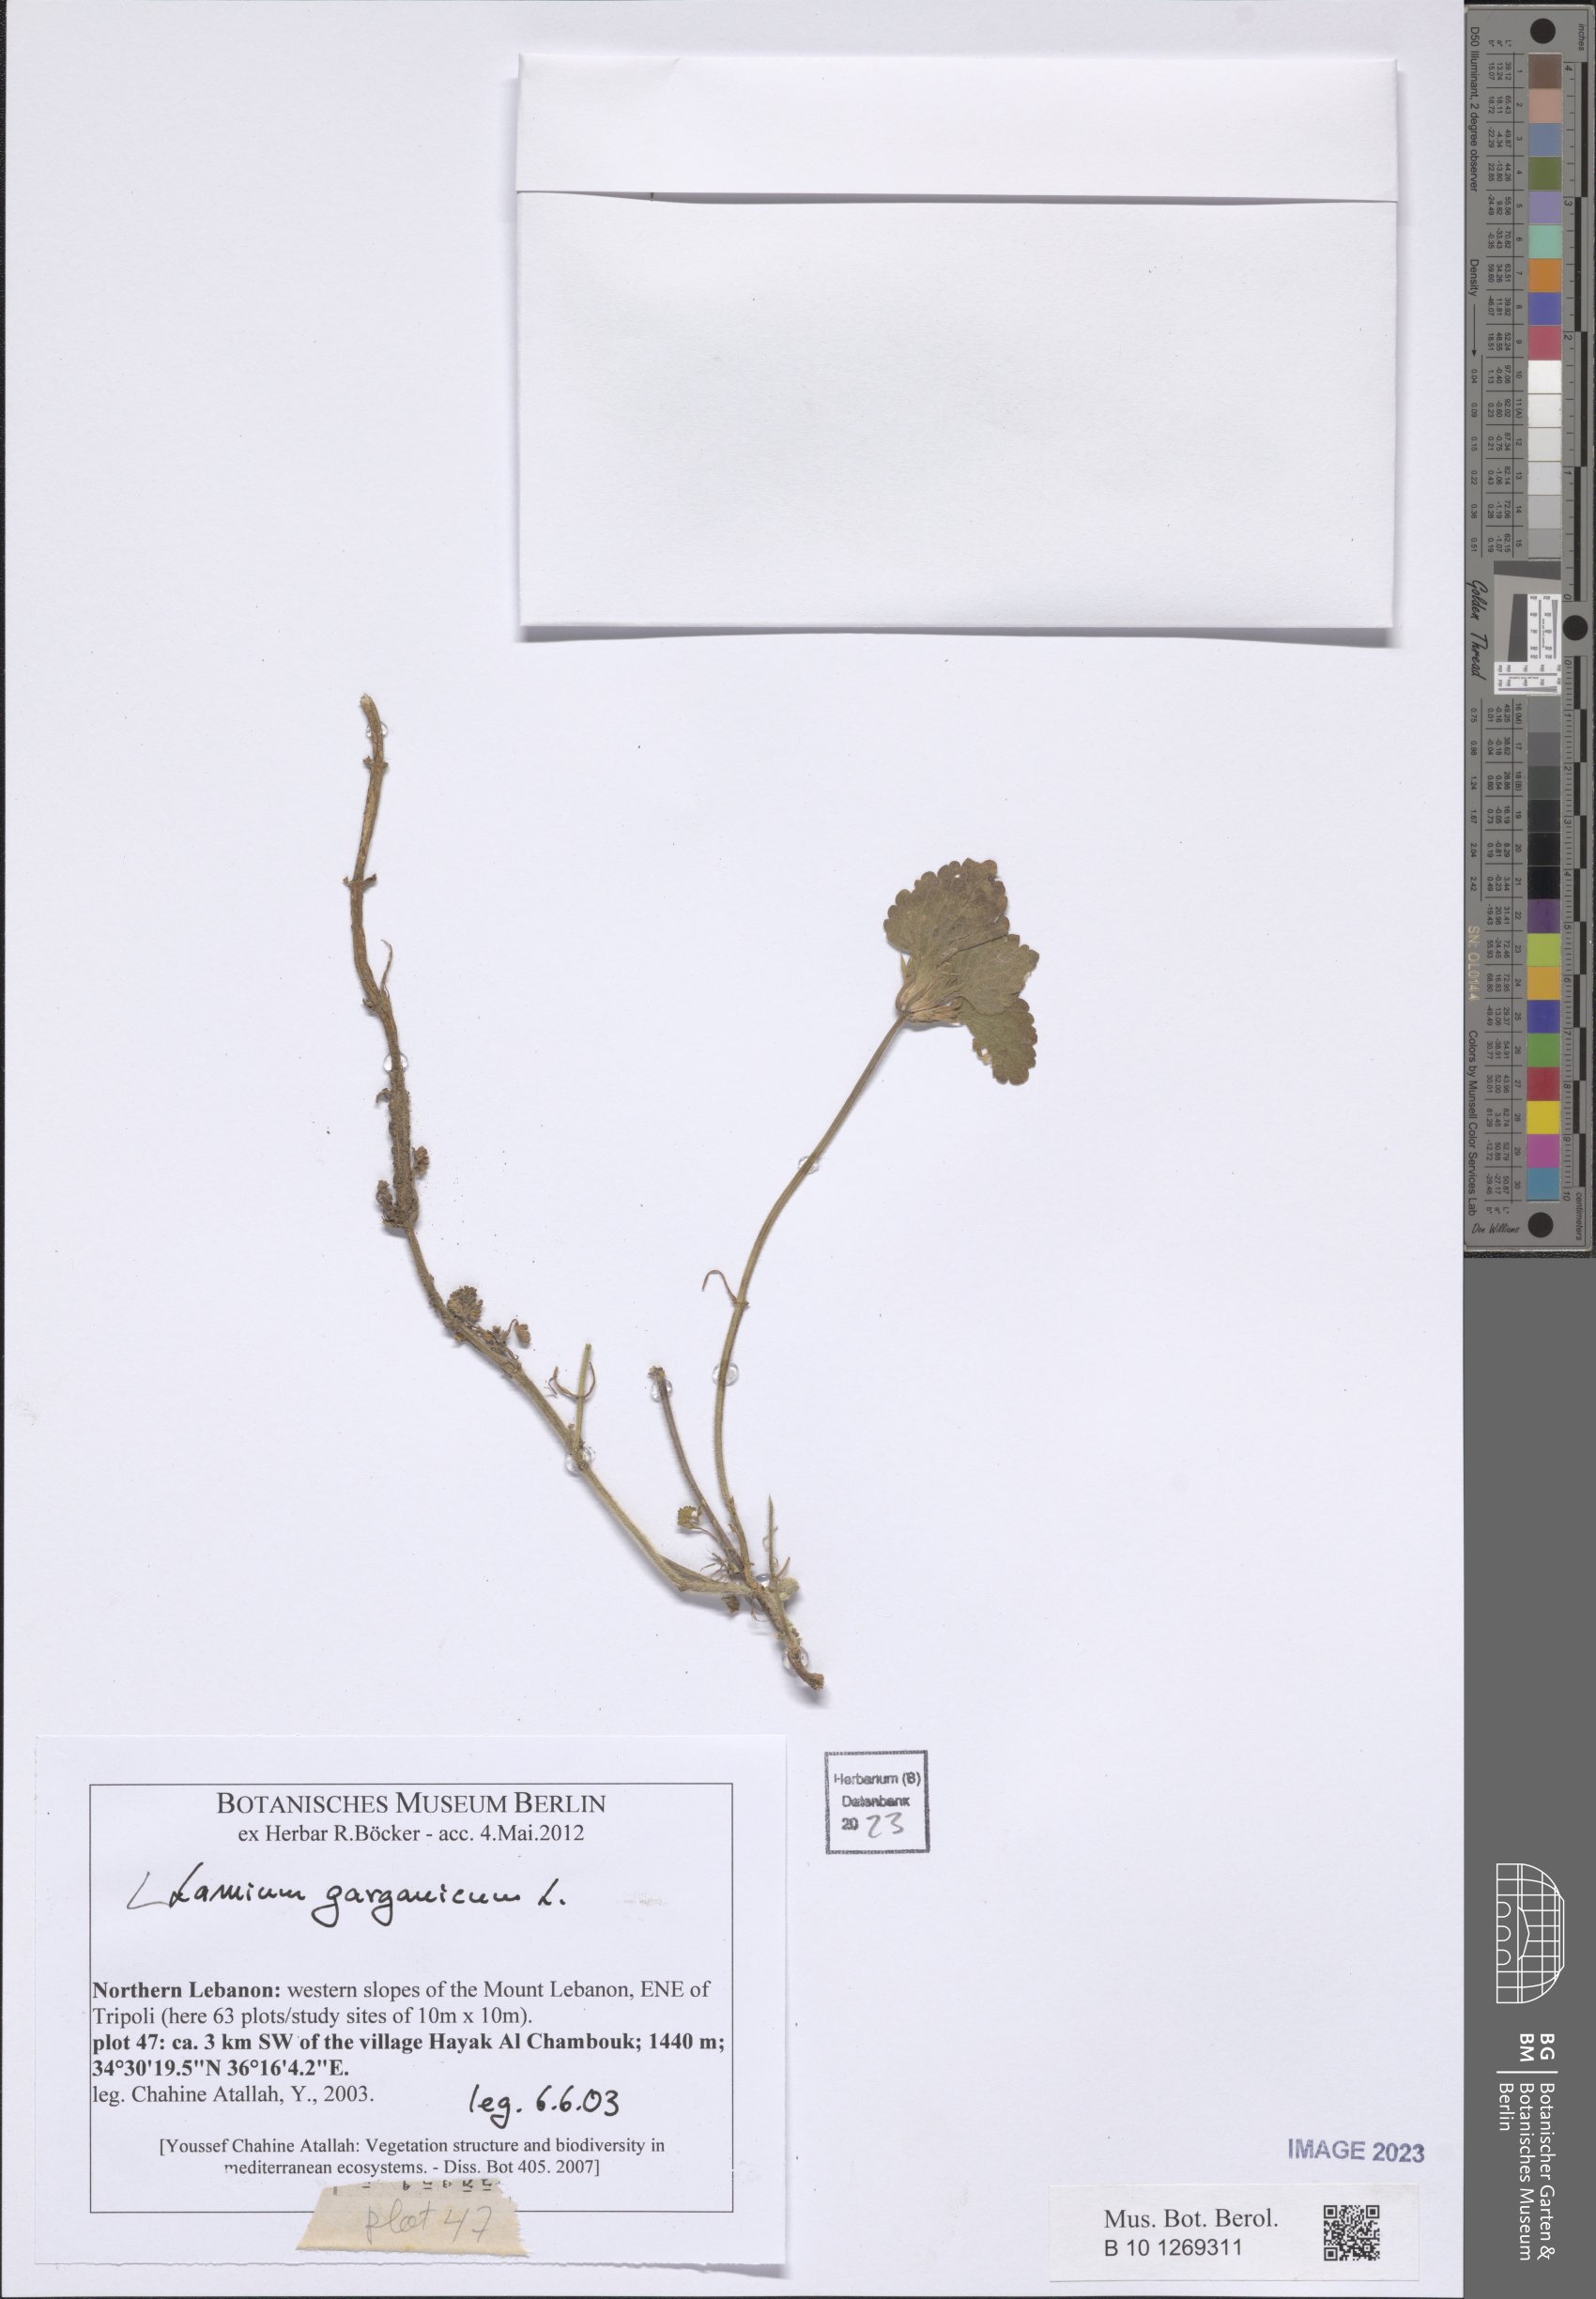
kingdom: Plantae
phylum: Tracheophyta
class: Magnoliopsida
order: Lamiales
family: Lamiaceae
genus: Lamium
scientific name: Lamium garganicum
